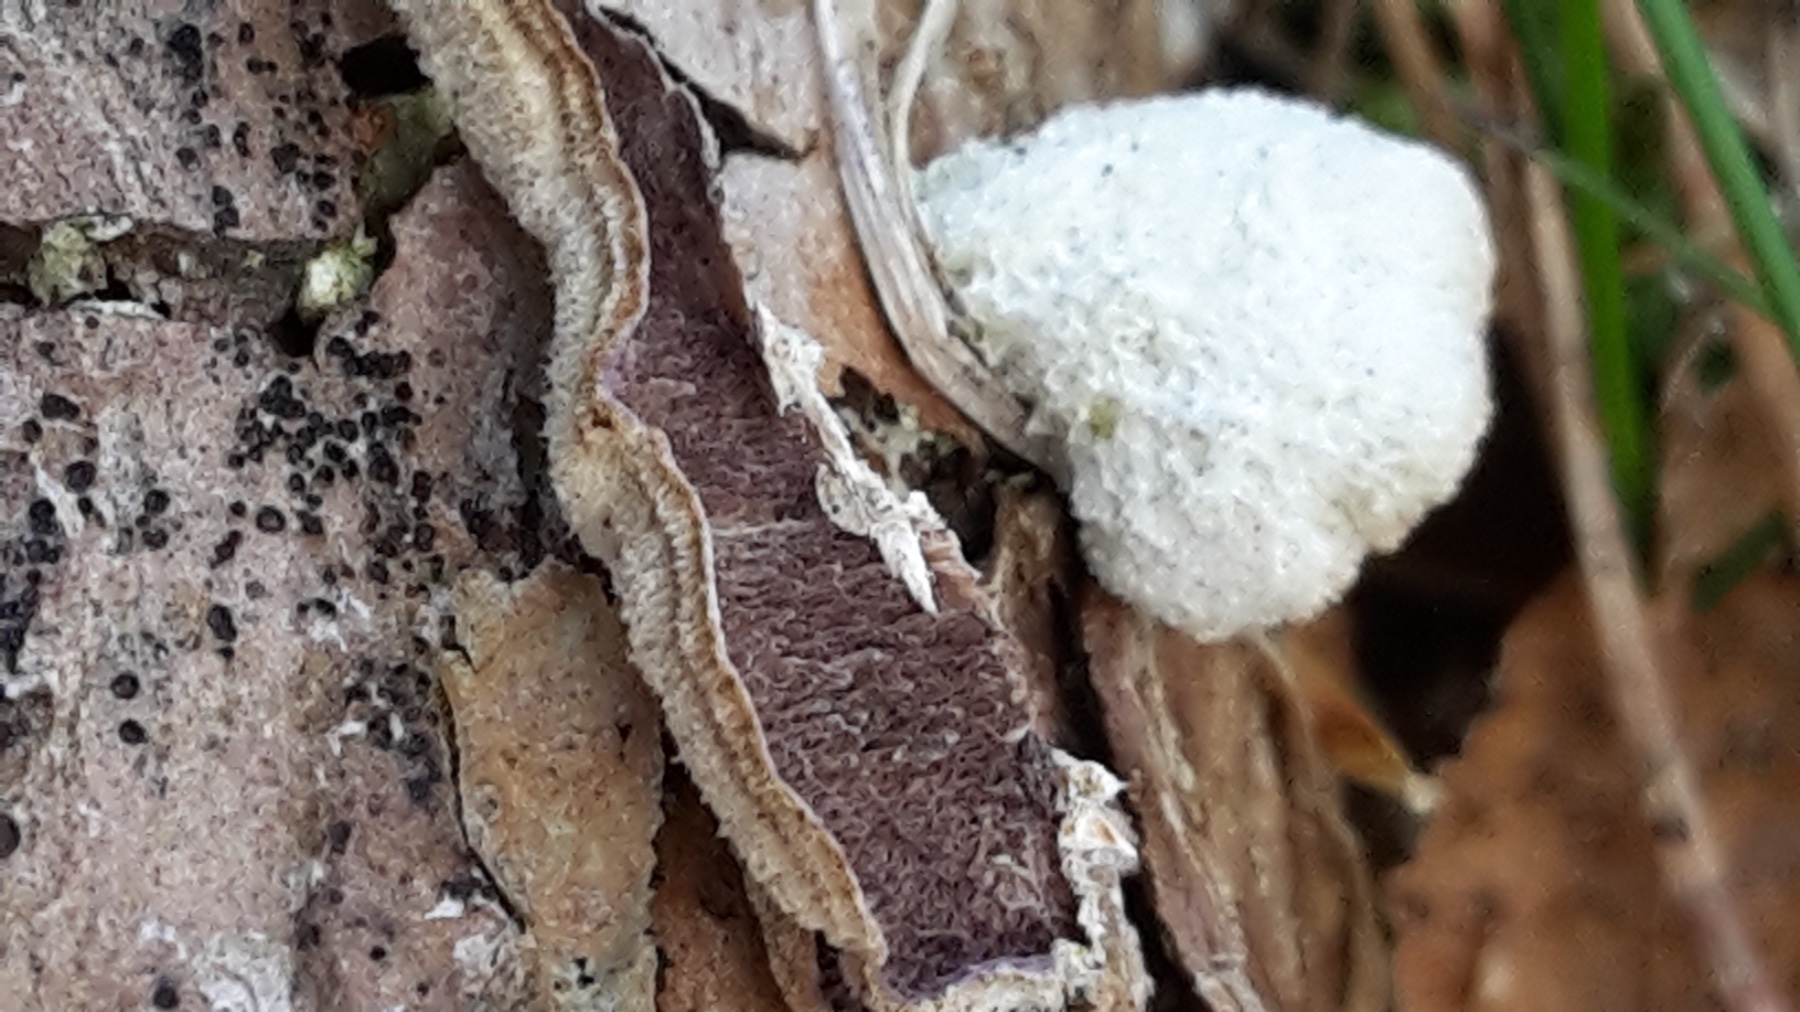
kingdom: Fungi
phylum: Basidiomycota
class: Agaricomycetes
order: Hymenochaetales
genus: Trichaptum
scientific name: Trichaptum fuscoviolaceum
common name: tandet violporesvamp
